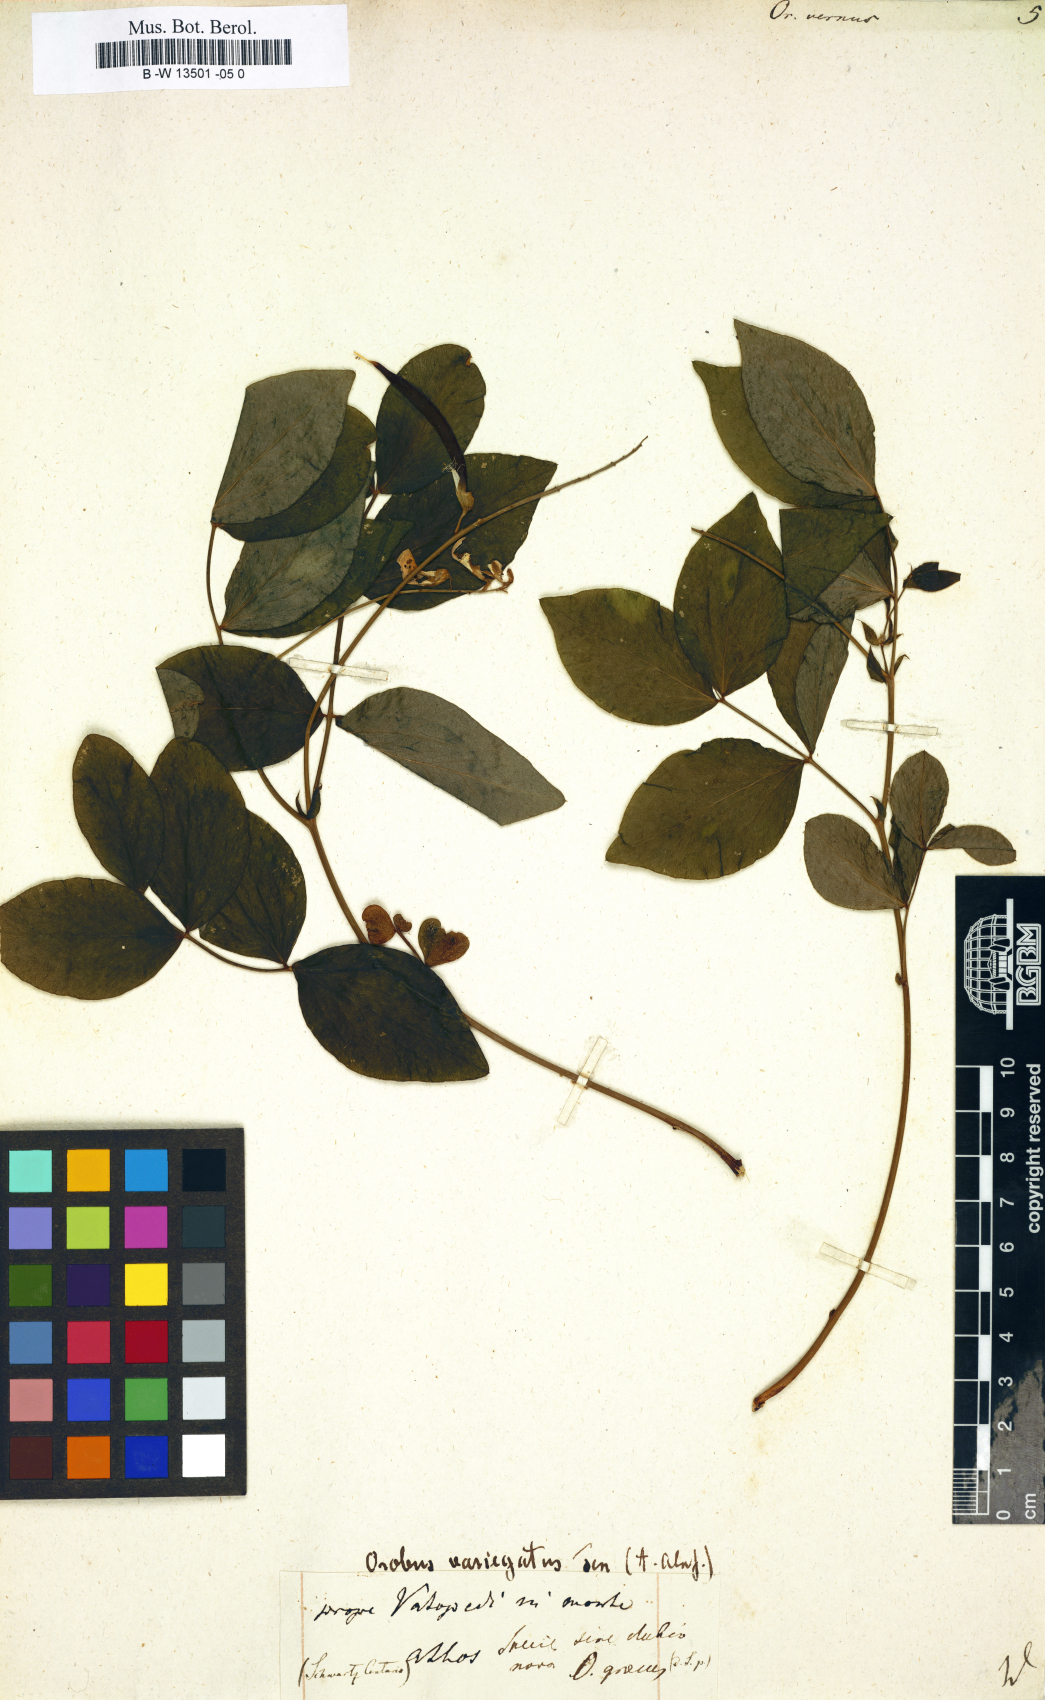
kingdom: Plantae
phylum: Tracheophyta
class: Magnoliopsida
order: Fabales
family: Fabaceae
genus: Lathyrus
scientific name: Lathyrus vernus
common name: Spring pea
